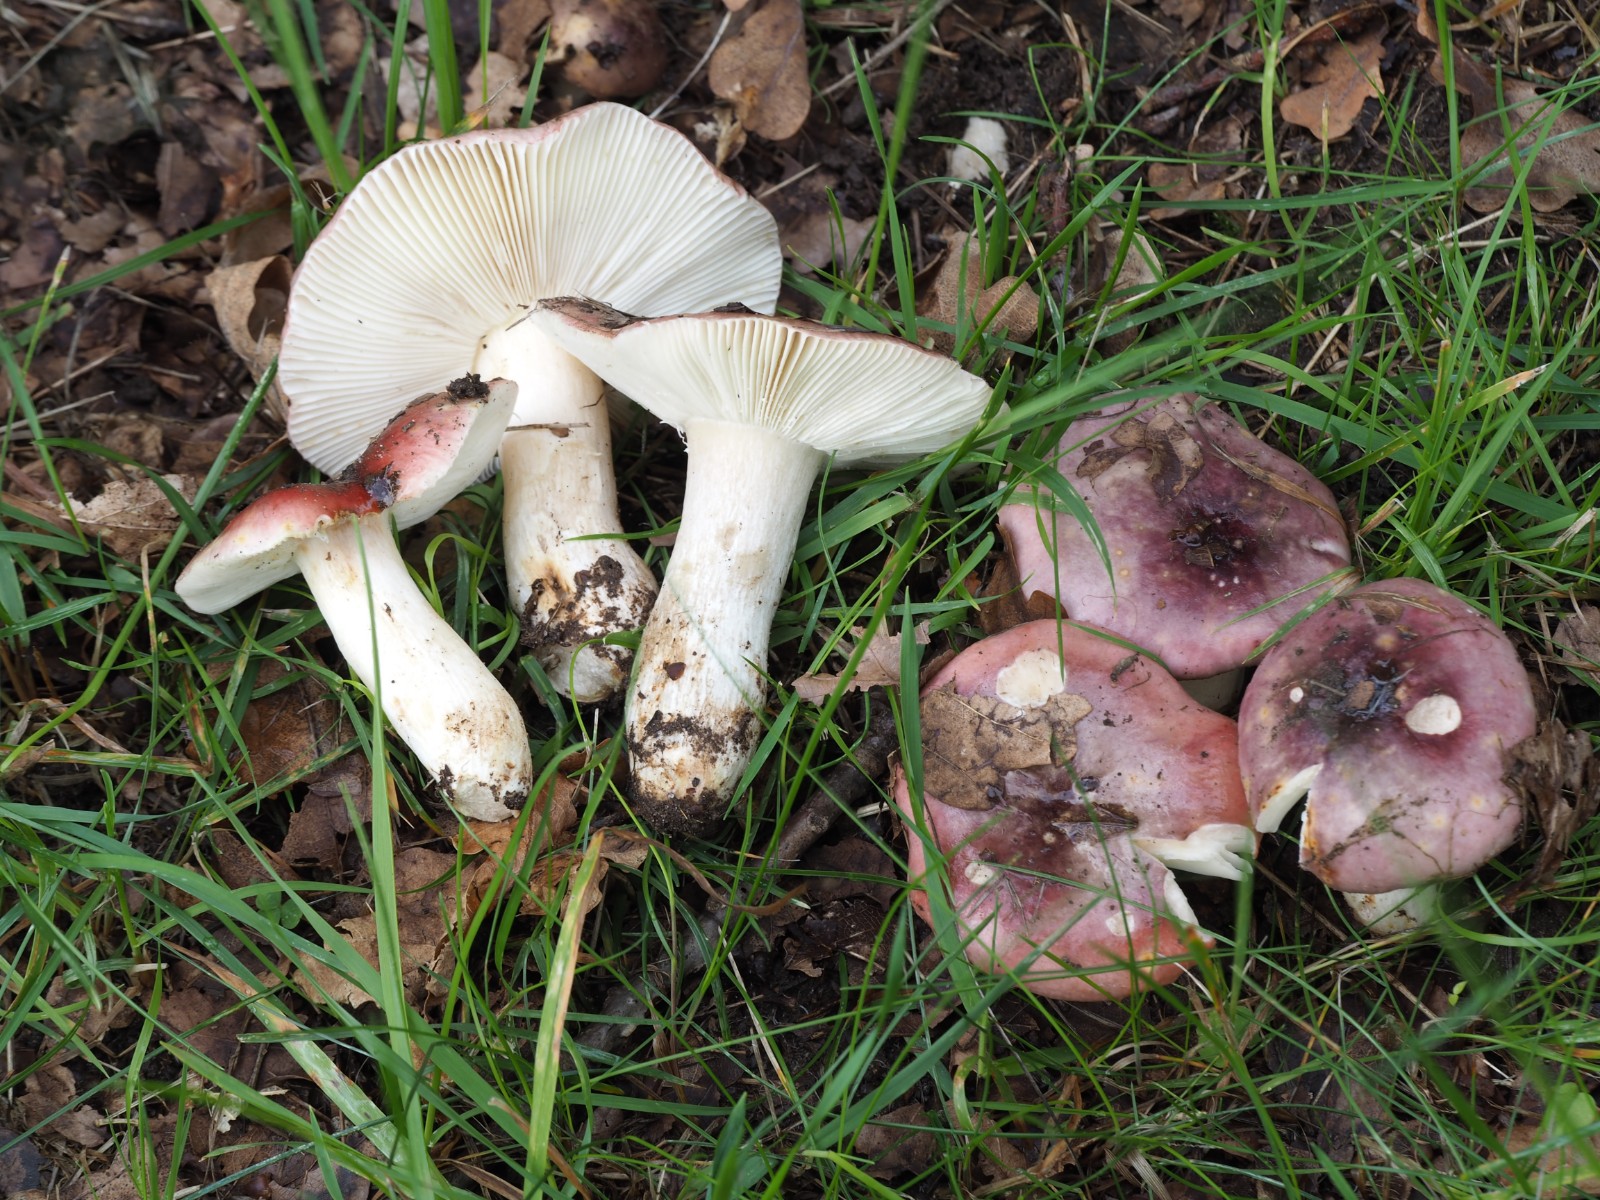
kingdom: Fungi
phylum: Basidiomycota
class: Agaricomycetes
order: Russulales
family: Russulaceae
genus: Russula
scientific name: Russula atropurpurea
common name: purpurbroget skørhat
